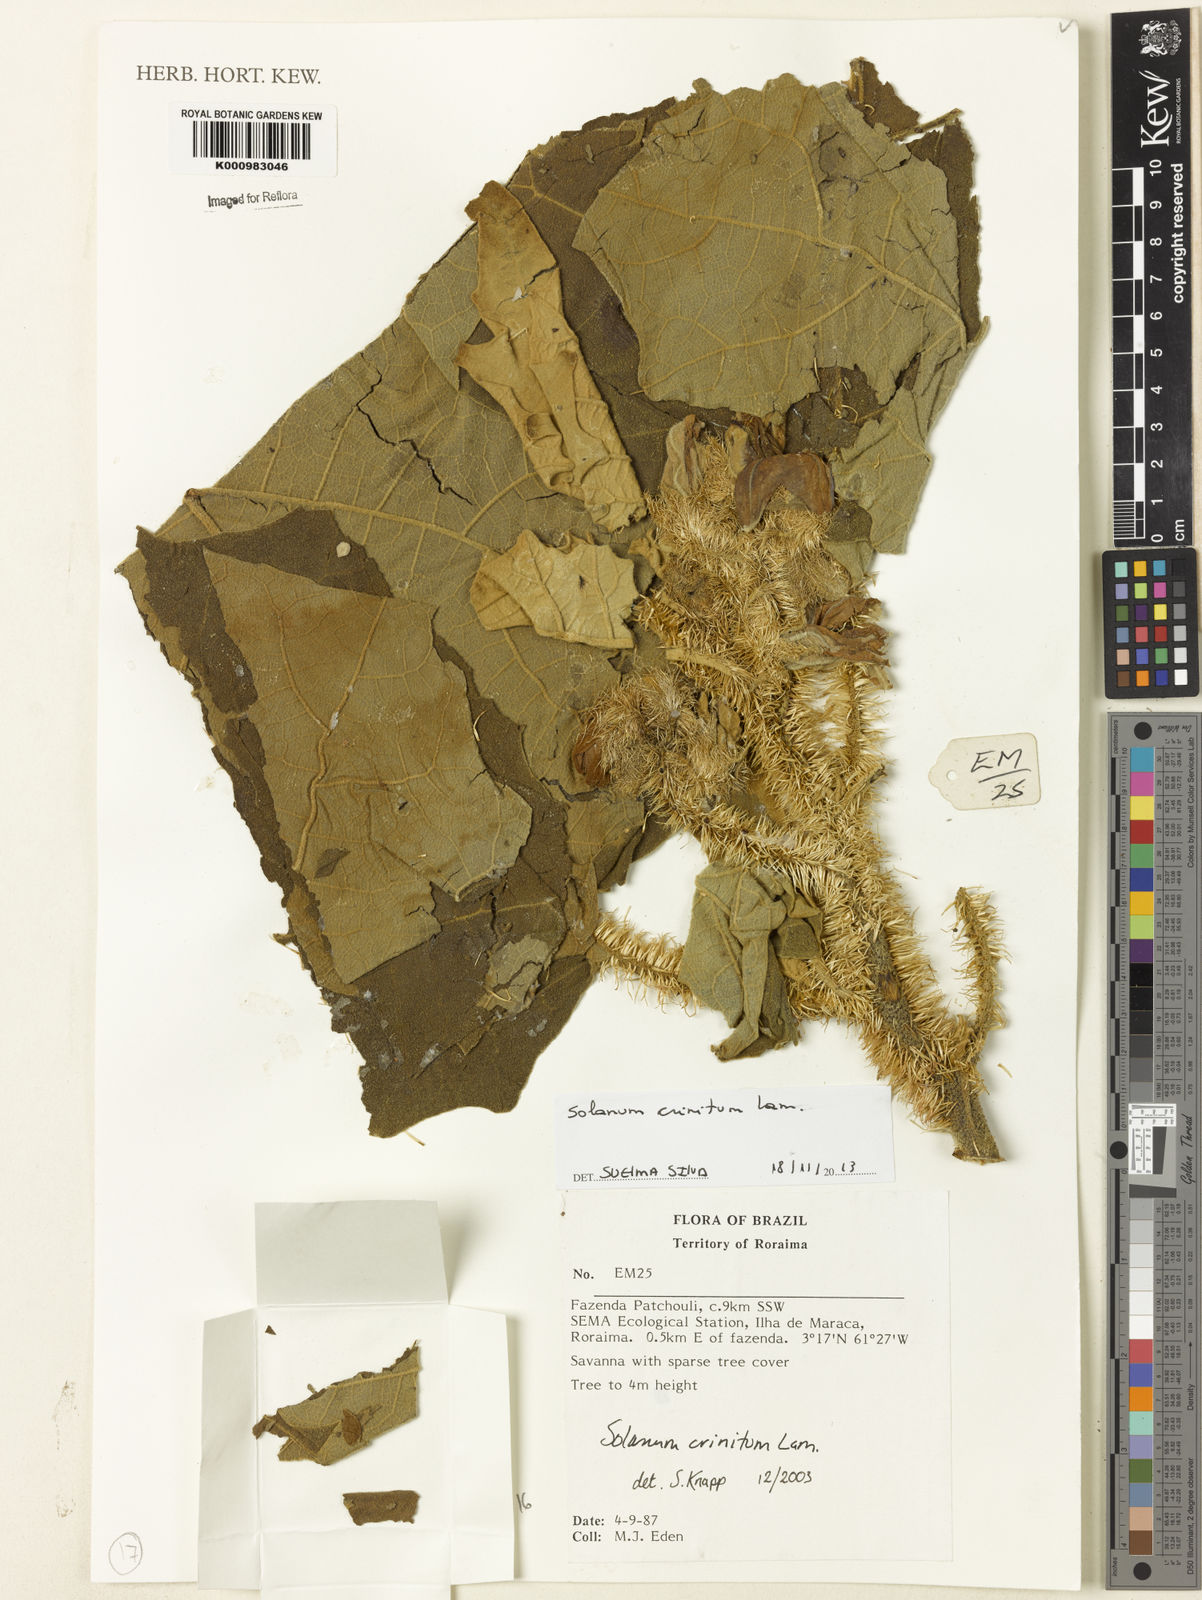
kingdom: Plantae
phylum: Tracheophyta
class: Magnoliopsida
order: Solanales
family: Solanaceae
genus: Solanum
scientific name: Solanum crinitum
